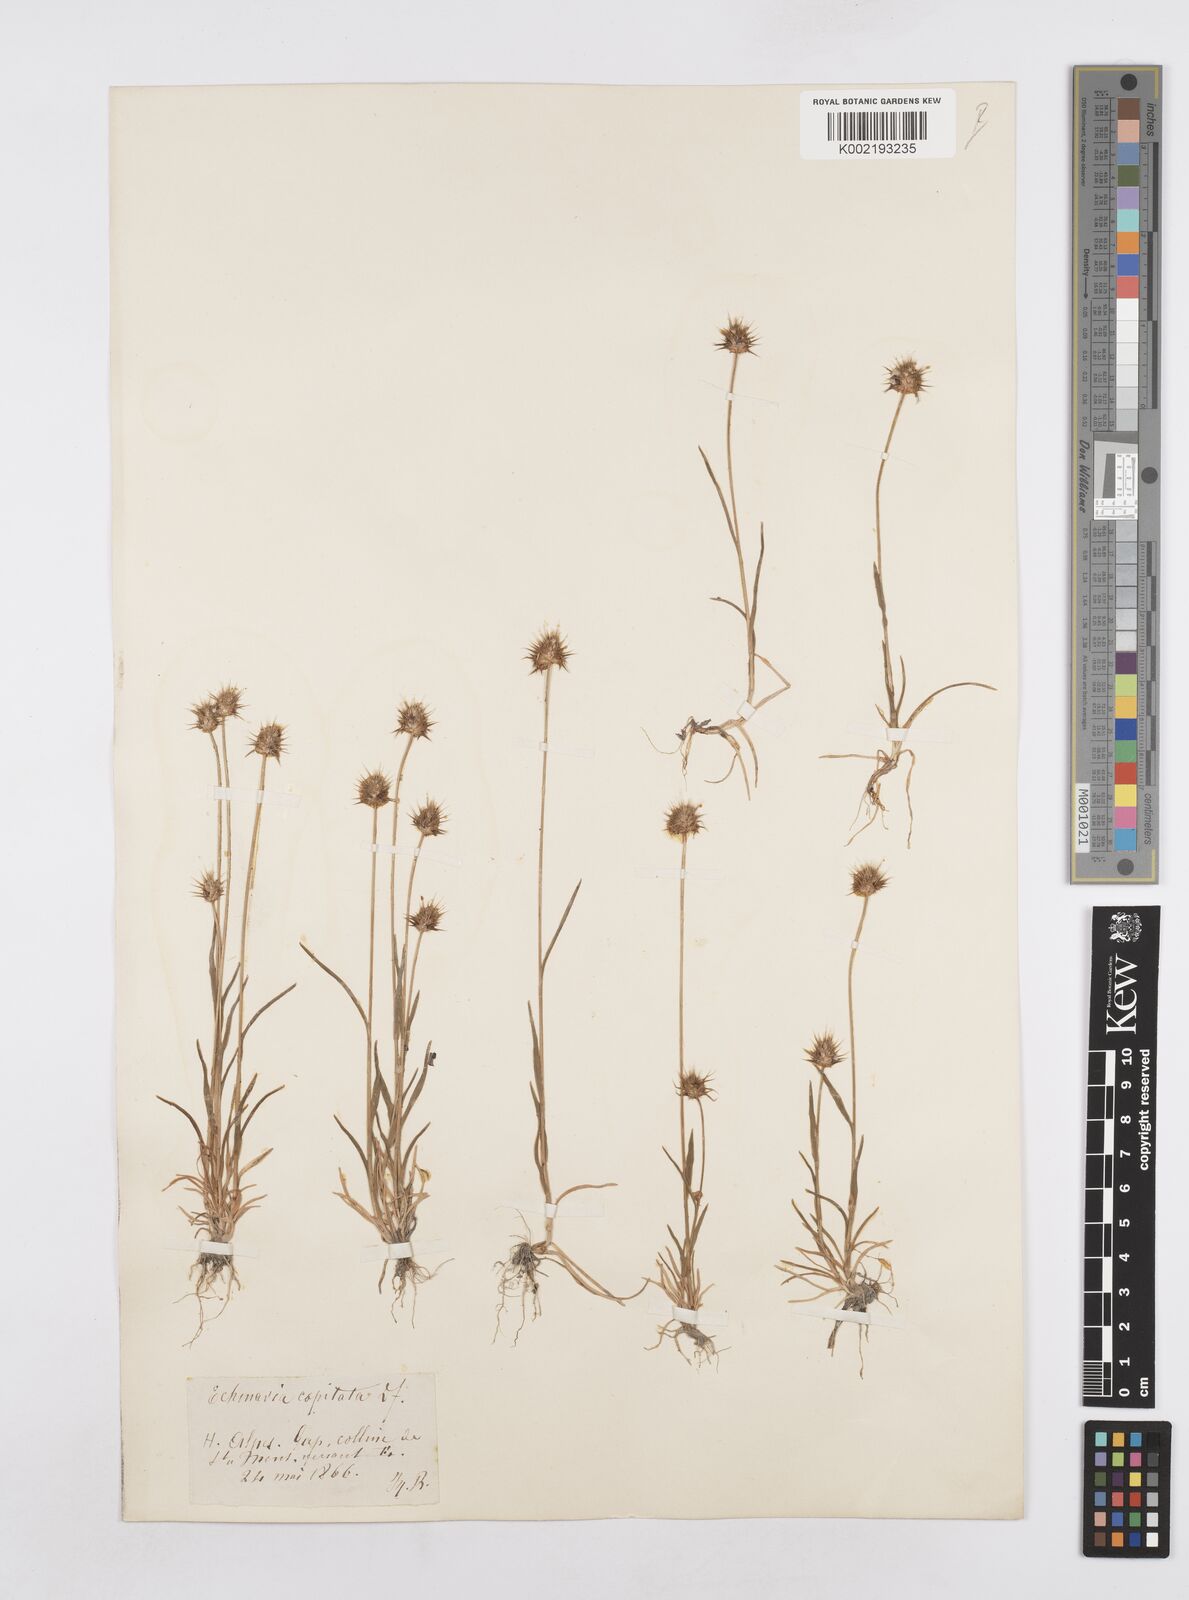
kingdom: Plantae
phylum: Tracheophyta
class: Liliopsida
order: Poales
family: Poaceae
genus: Echinaria
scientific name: Echinaria capitata
